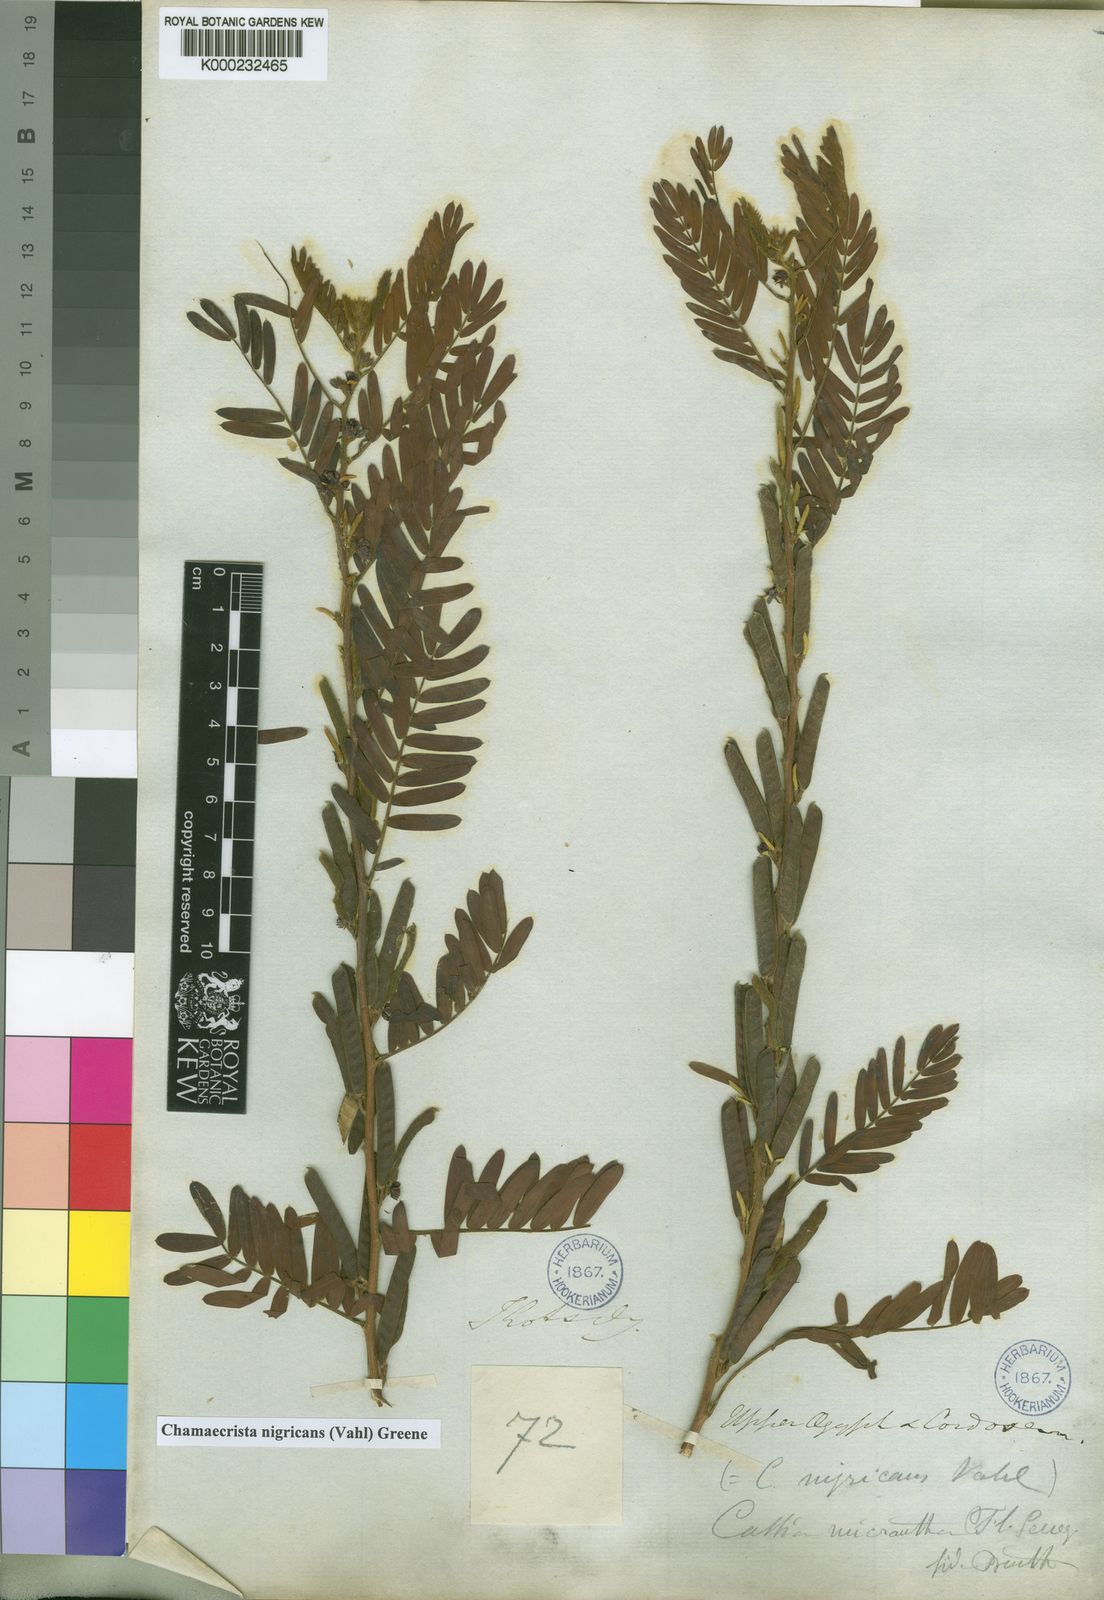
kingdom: Plantae
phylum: Tracheophyta
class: Magnoliopsida
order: Fabales
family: Fabaceae
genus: Chamaecrista
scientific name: Chamaecrista nigricans
